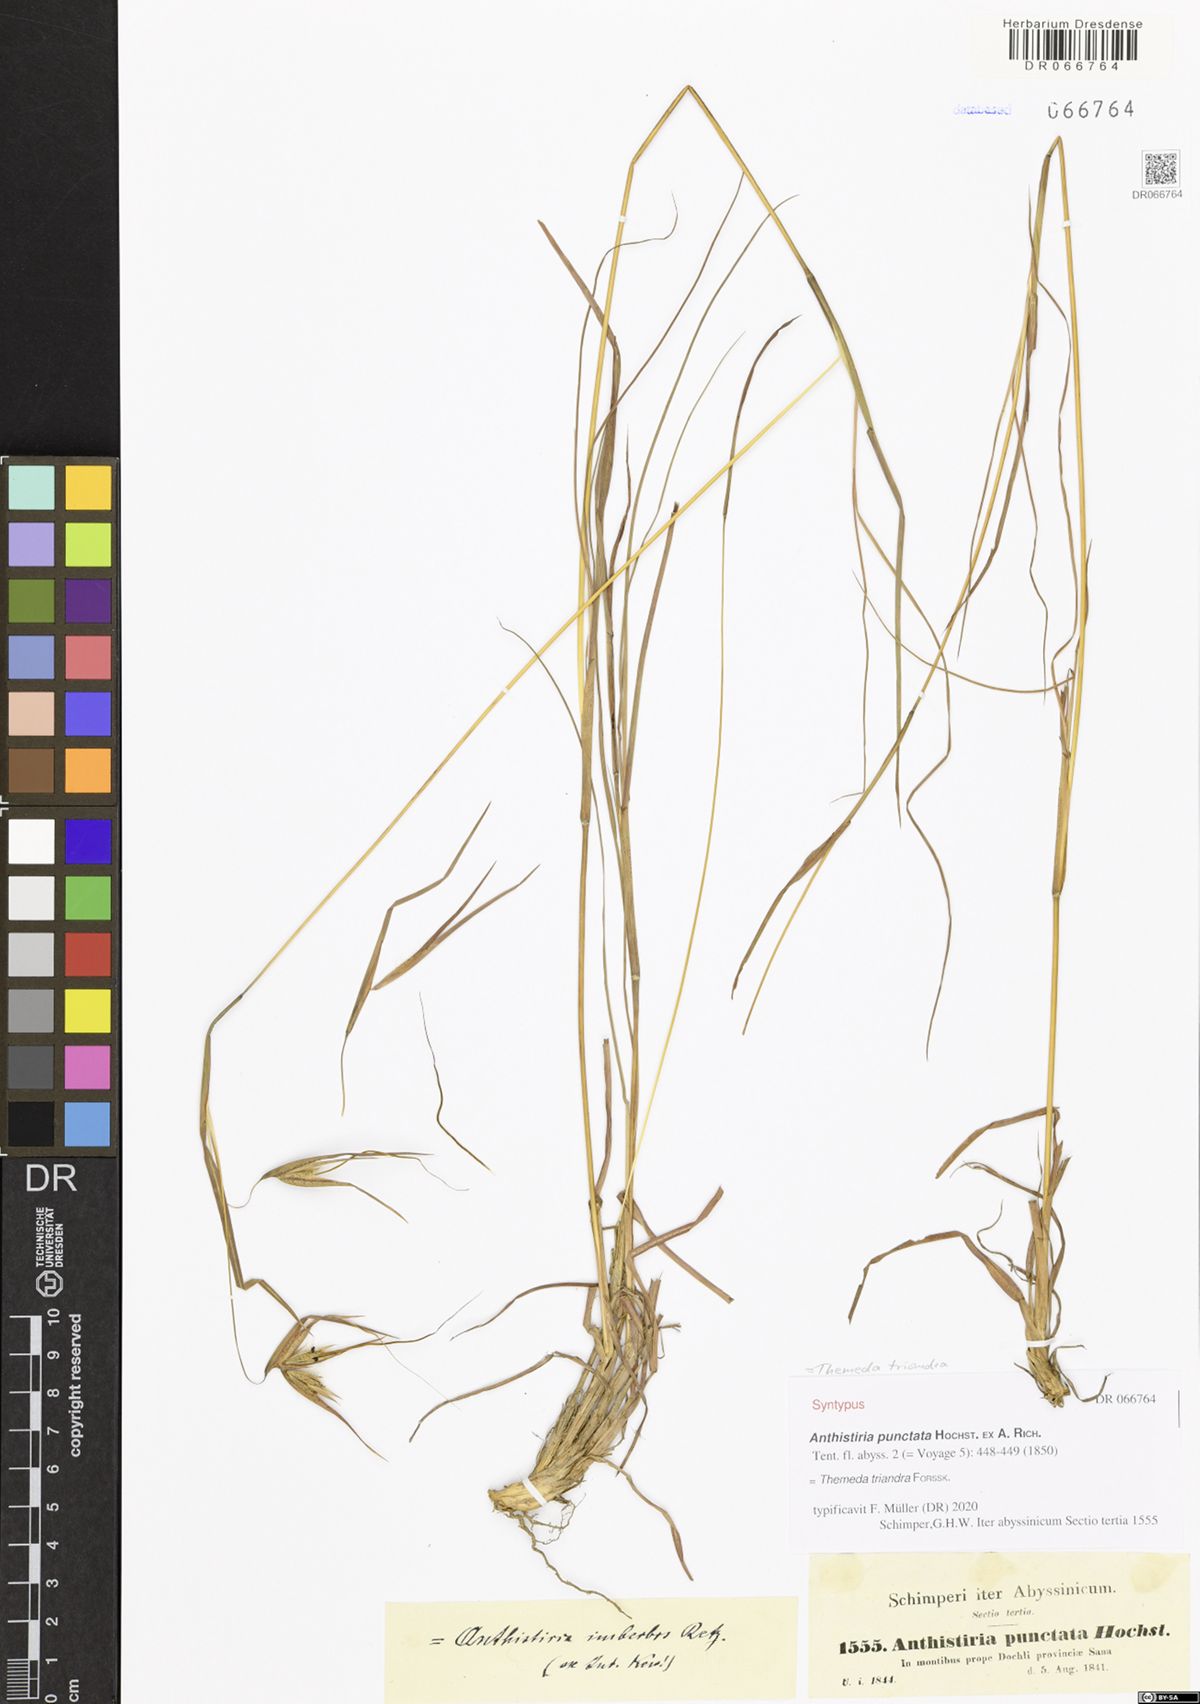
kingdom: Plantae
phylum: Tracheophyta
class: Liliopsida
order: Poales
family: Poaceae
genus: Themeda
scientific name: Themeda triandra
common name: Kangaroo grass
